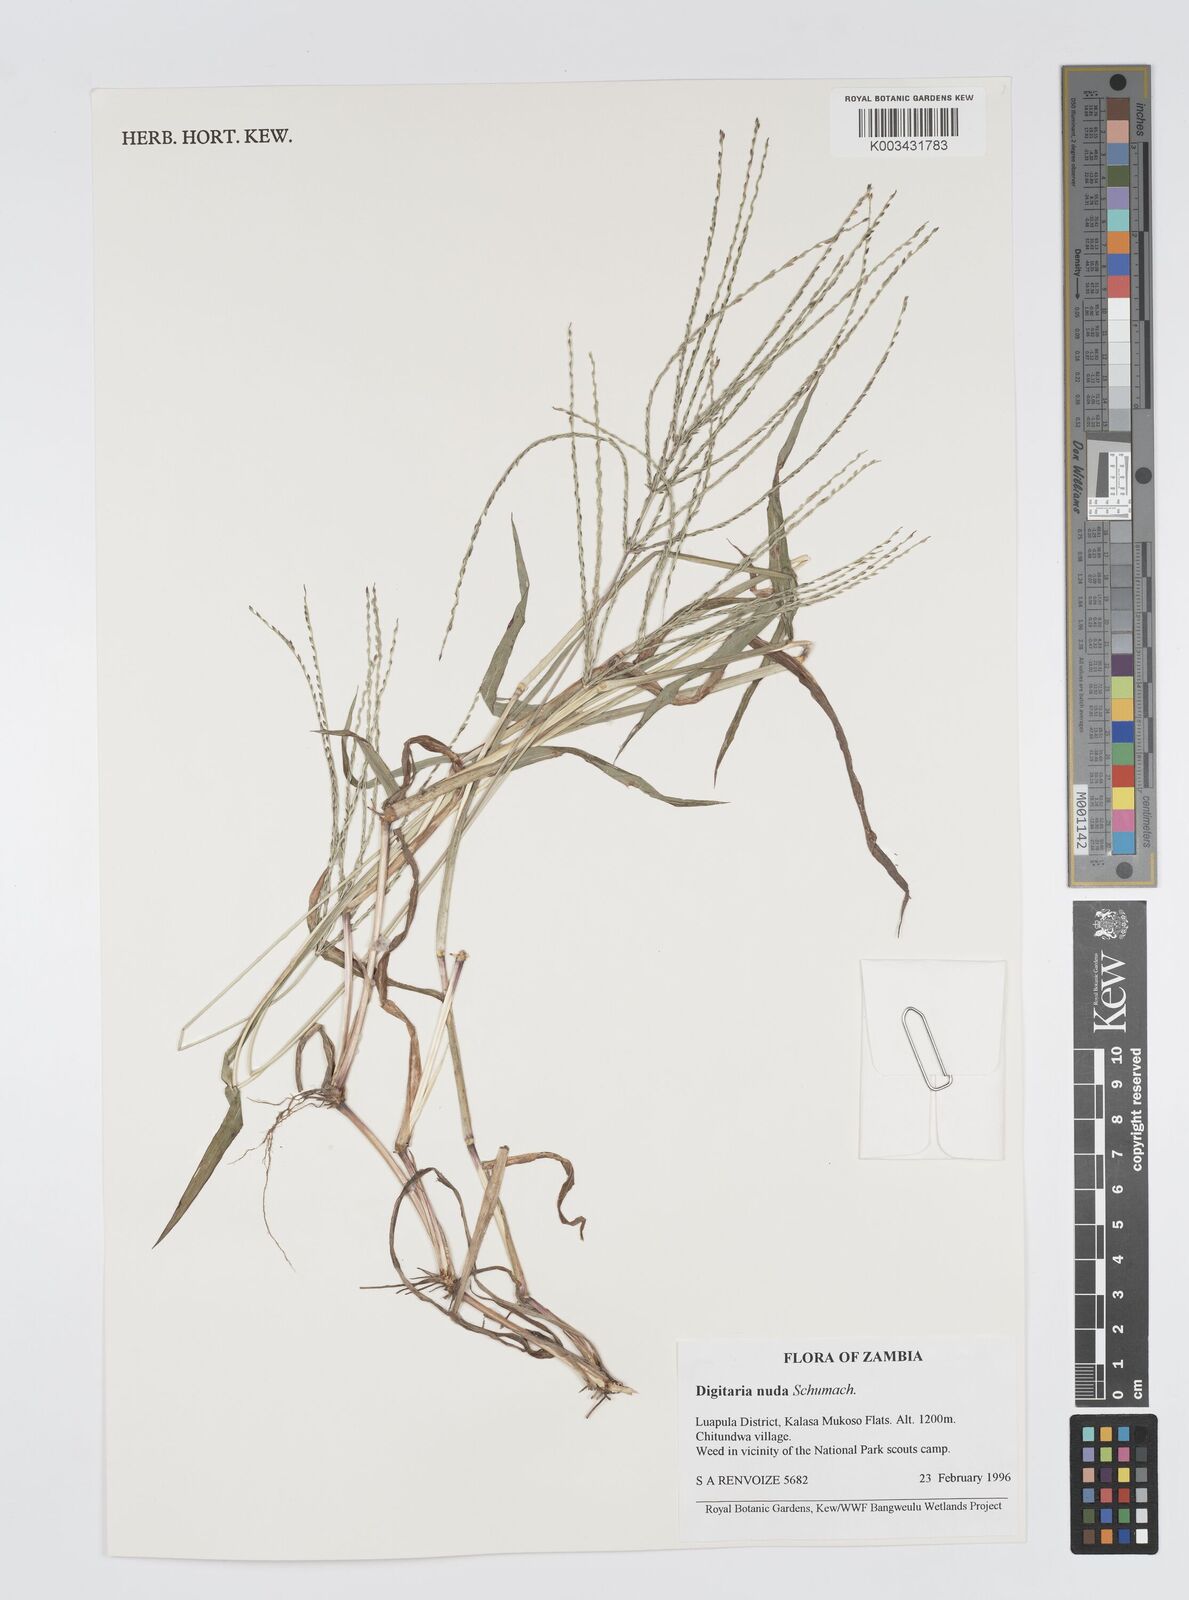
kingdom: Plantae
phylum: Tracheophyta
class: Liliopsida
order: Poales
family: Poaceae
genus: Digitaria
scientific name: Digitaria nuda
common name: Naked crabgrass
